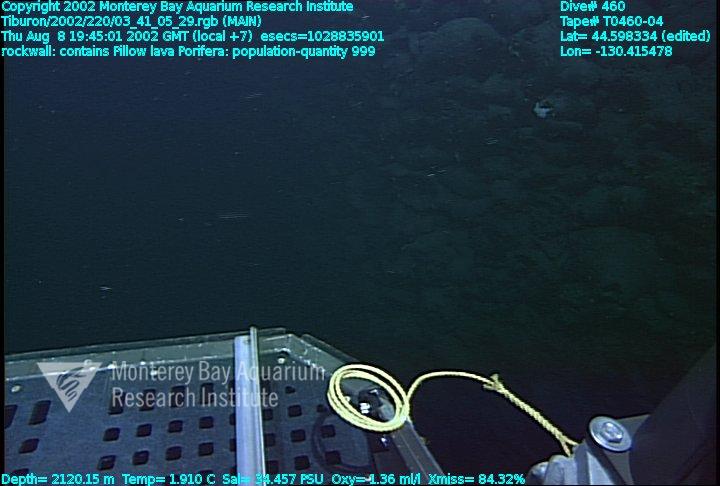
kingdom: Animalia
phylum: Porifera
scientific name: Porifera
